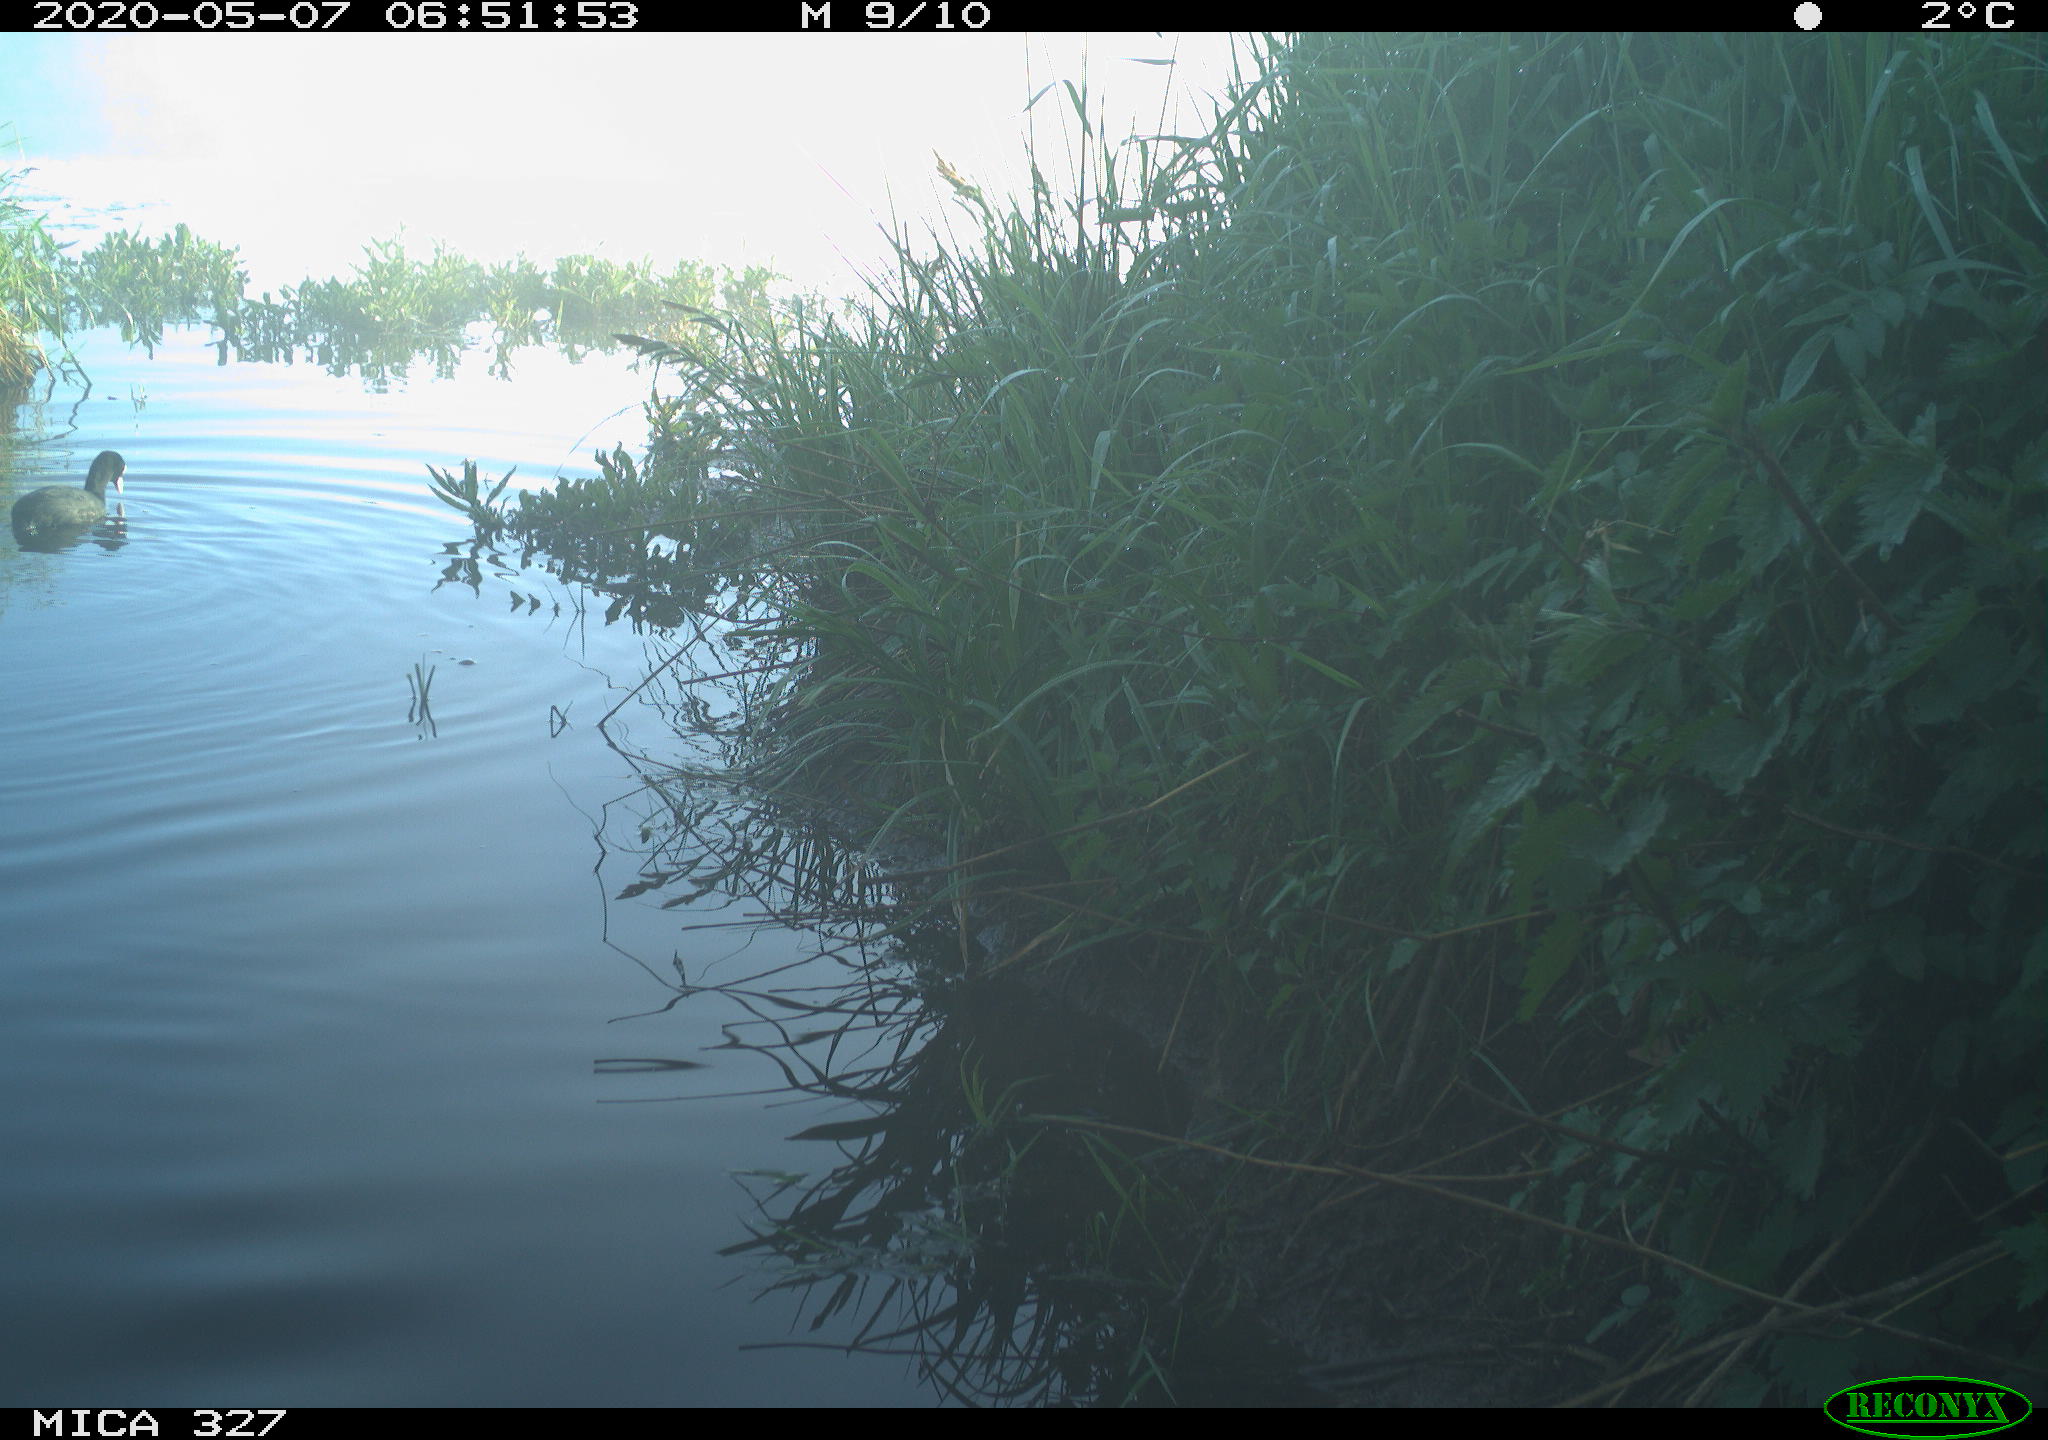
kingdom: Animalia
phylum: Chordata
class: Aves
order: Gruiformes
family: Rallidae
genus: Fulica
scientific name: Fulica atra
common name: Eurasian coot
